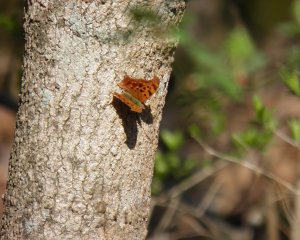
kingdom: Animalia
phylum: Arthropoda
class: Insecta
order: Lepidoptera
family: Nymphalidae
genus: Polygonia
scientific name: Polygonia interrogationis
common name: Question Mark
